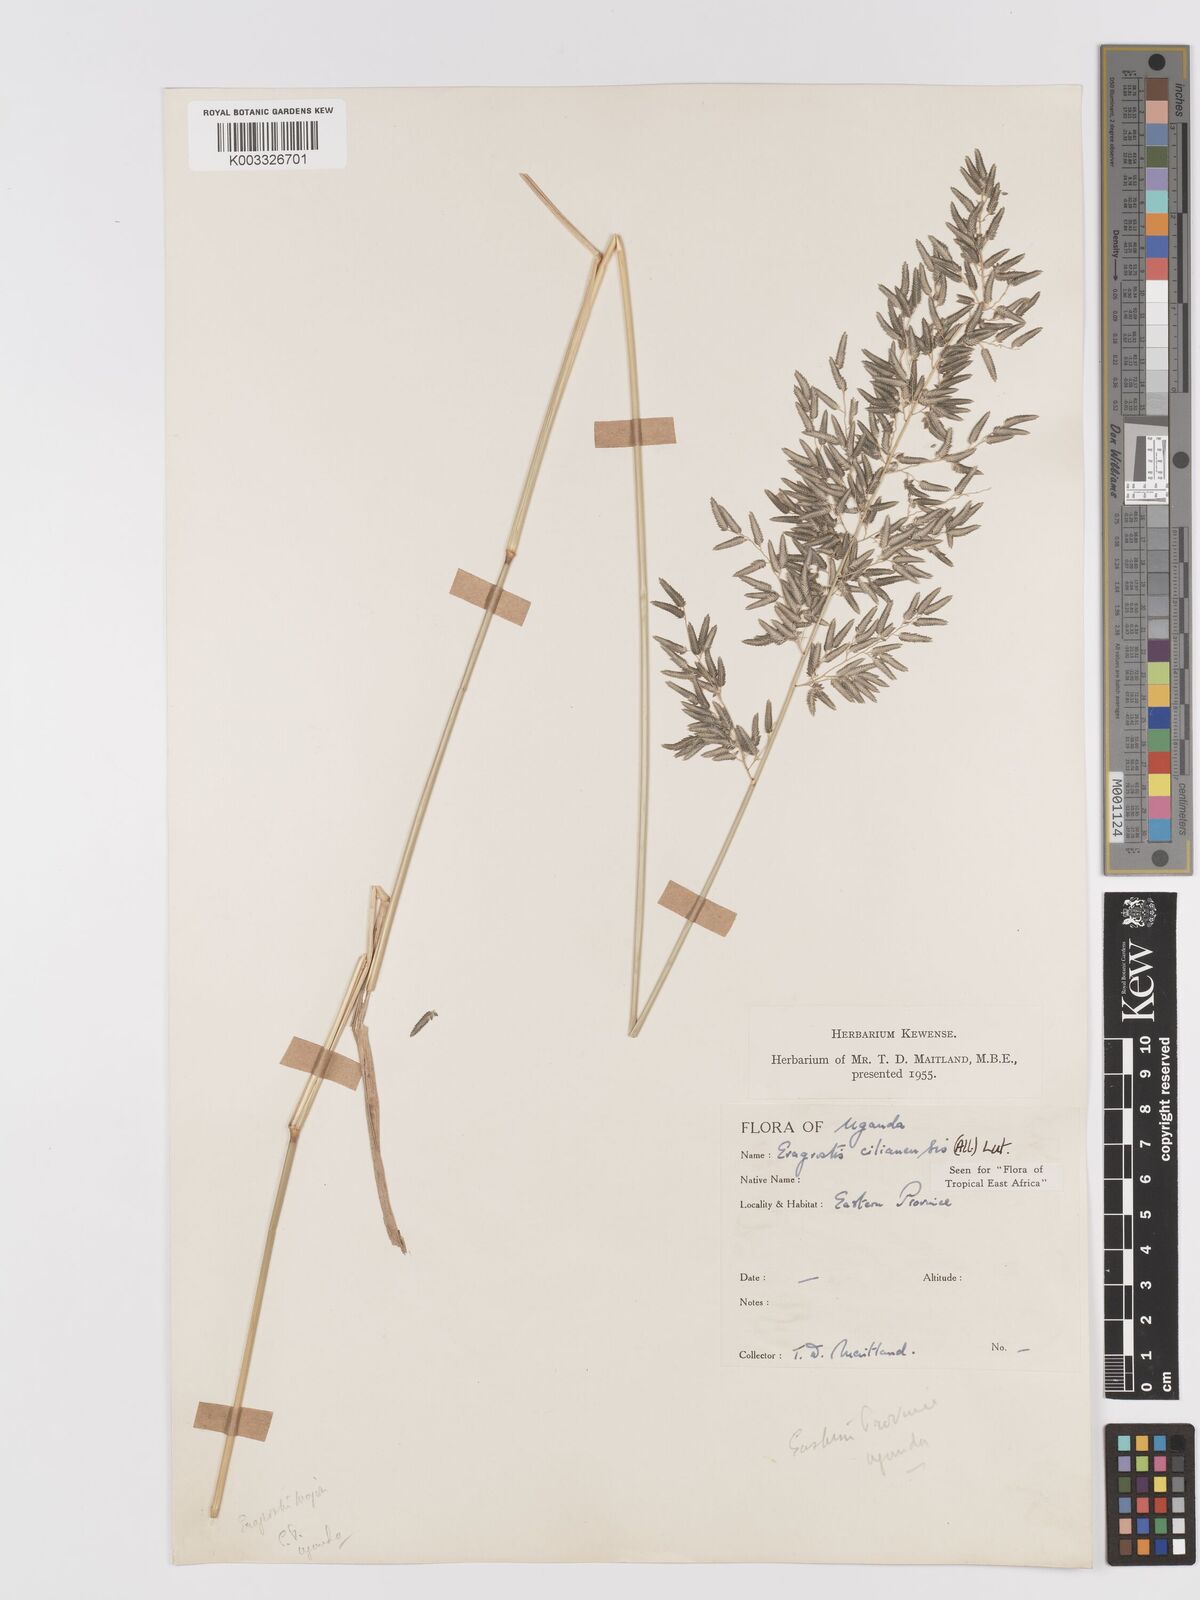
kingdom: Plantae
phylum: Tracheophyta
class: Liliopsida
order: Poales
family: Poaceae
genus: Eragrostis
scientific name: Eragrostis cilianensis
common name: Stinkgrass
